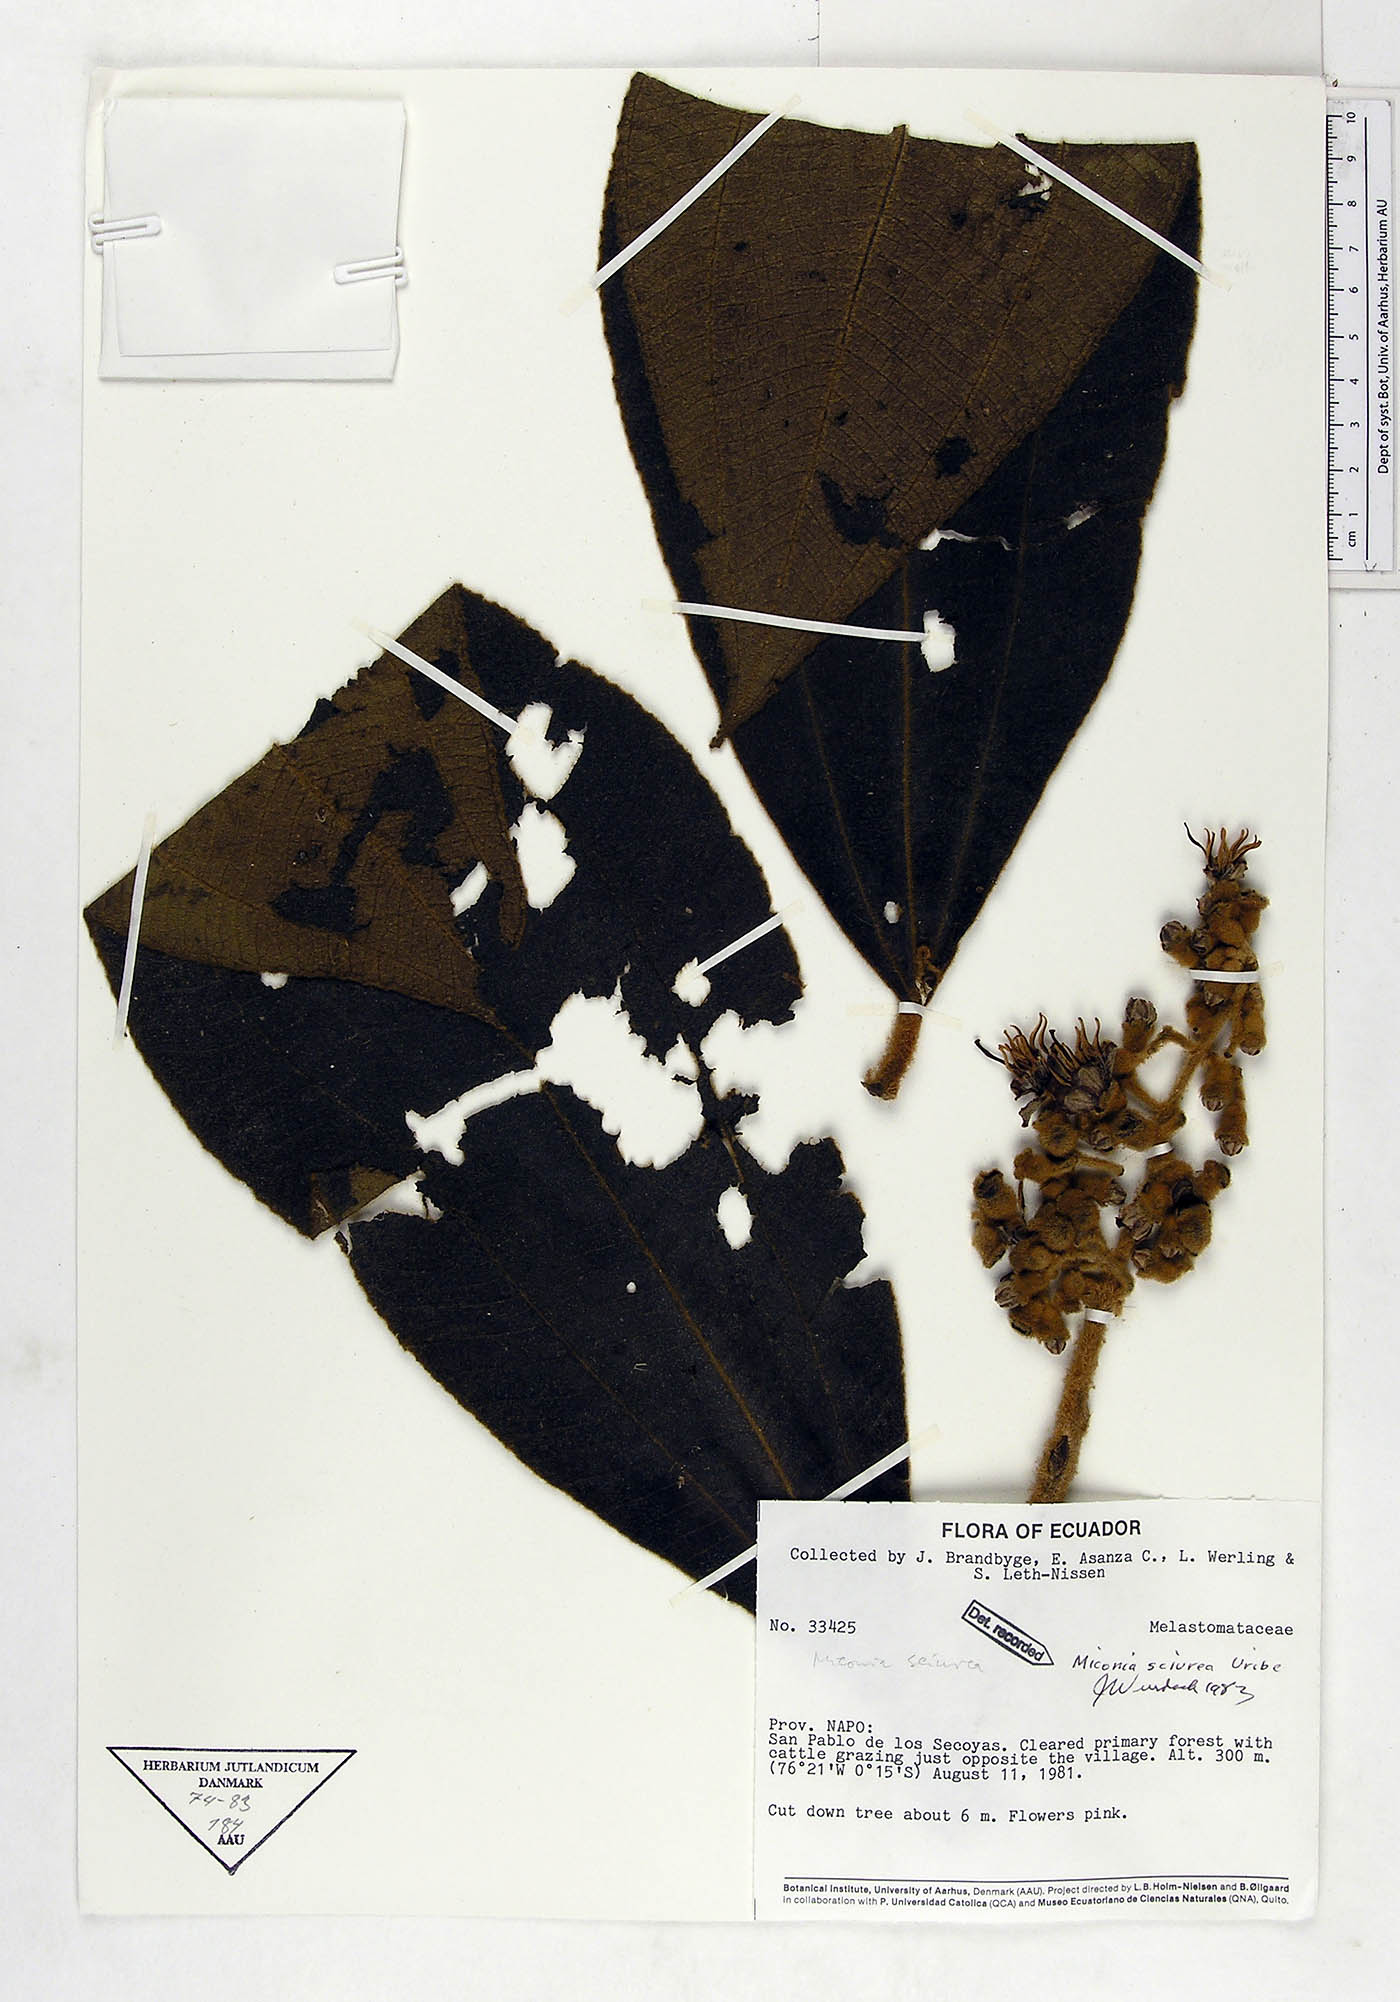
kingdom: Plantae
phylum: Tracheophyta
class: Magnoliopsida
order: Myrtales
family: Melastomataceae
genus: Miconia
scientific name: Miconia sciurea
